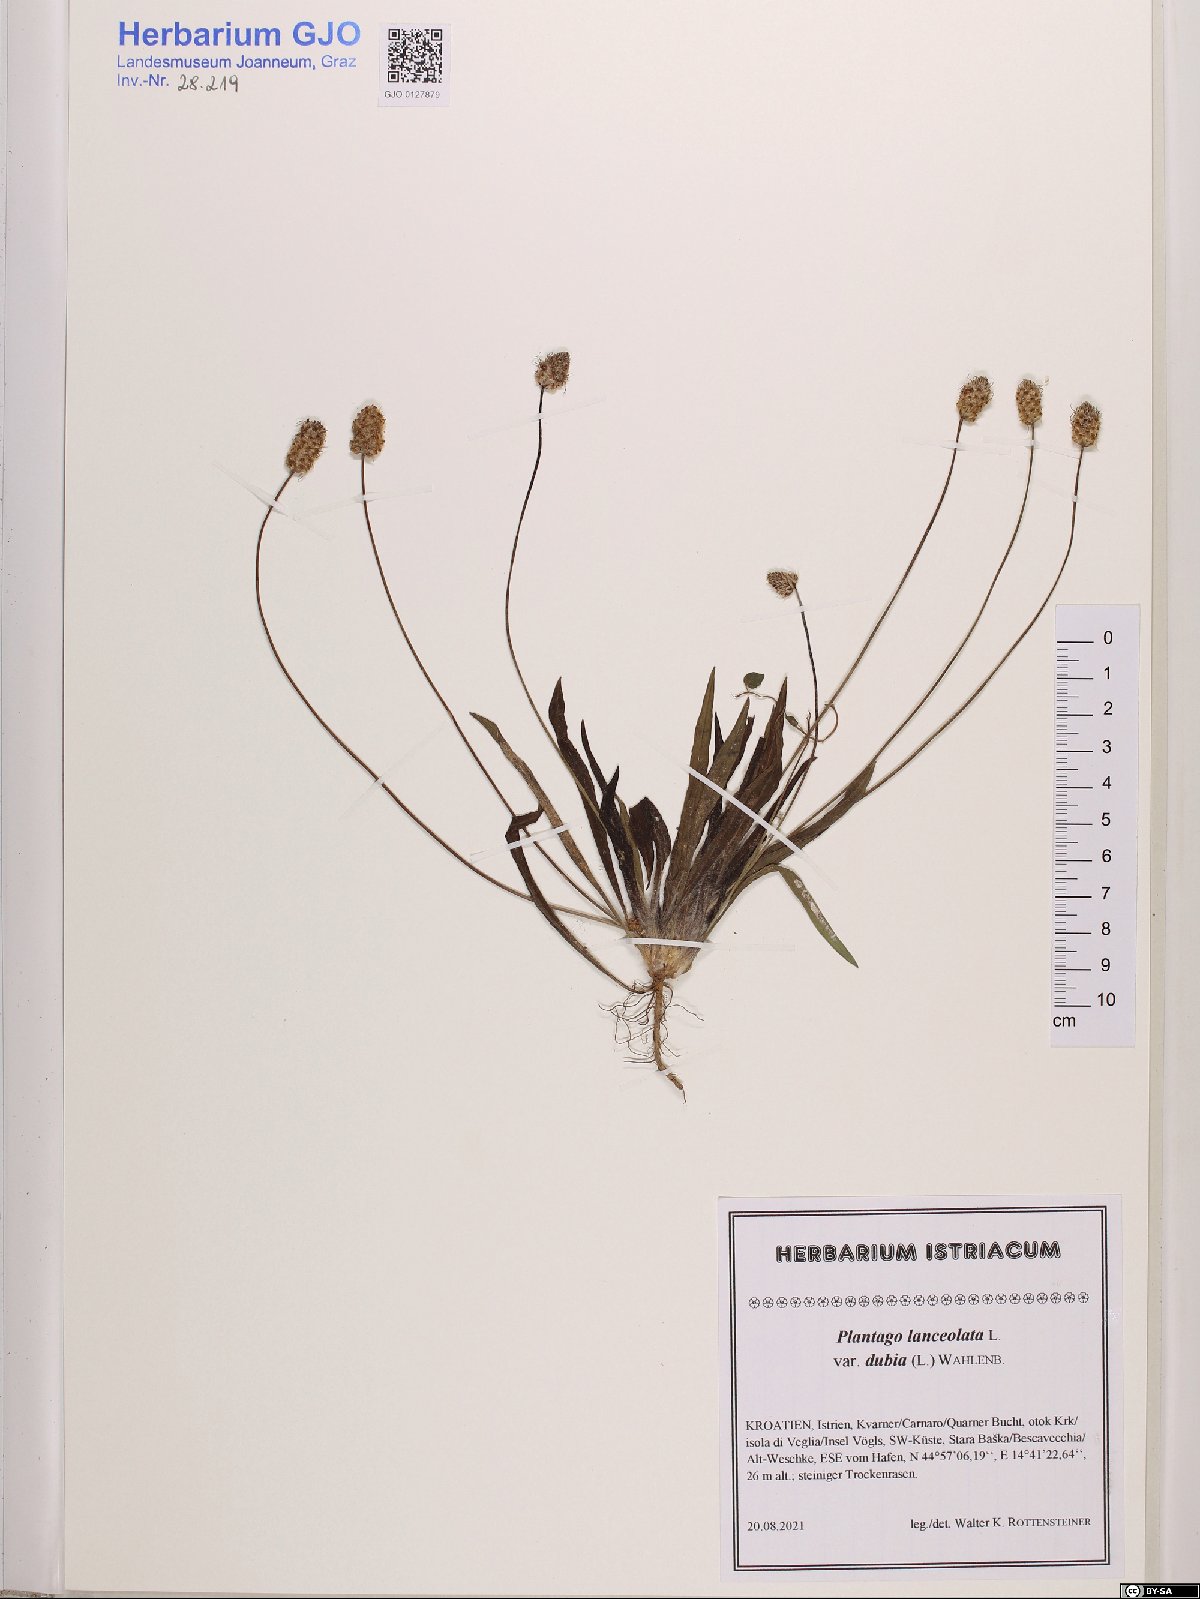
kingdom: Plantae
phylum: Tracheophyta
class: Magnoliopsida
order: Lamiales
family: Plantaginaceae
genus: Plantago
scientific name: Plantago lanceolata
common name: Ribwort plantain
